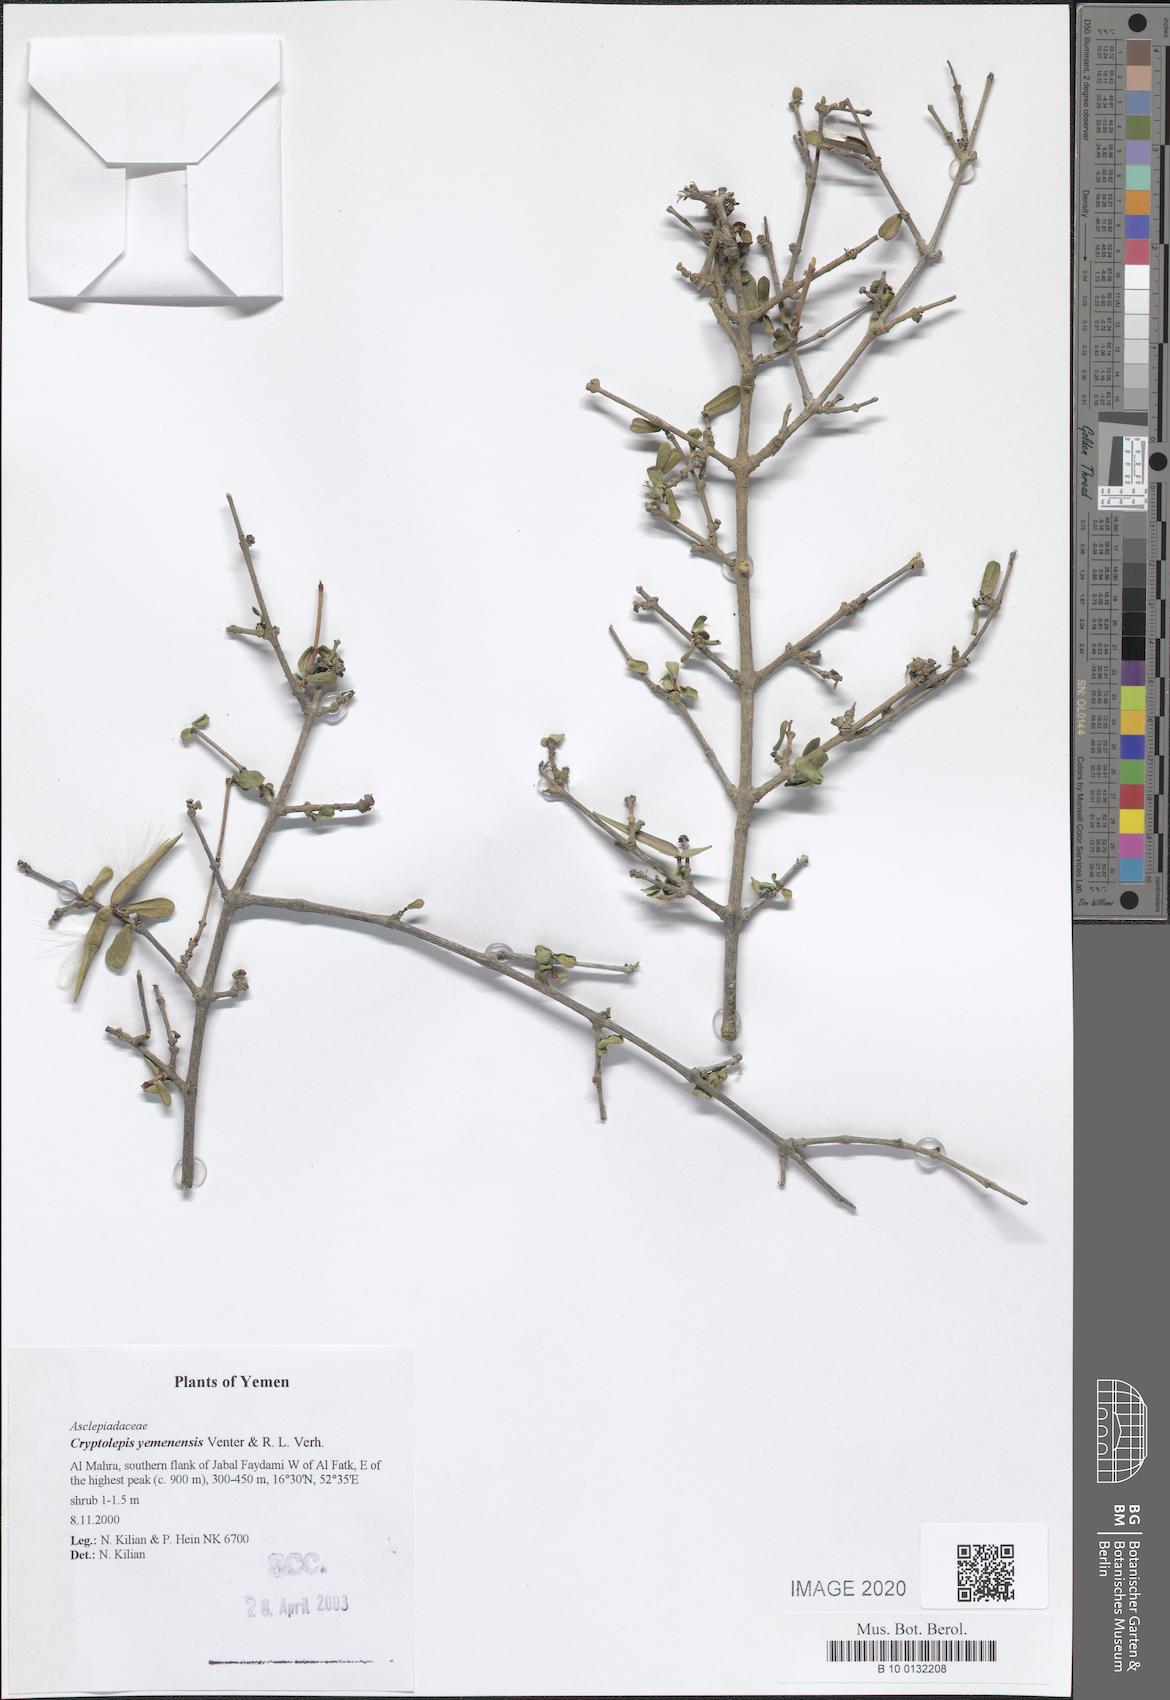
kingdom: Plantae
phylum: Tracheophyta
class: Magnoliopsida
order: Gentianales
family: Apocynaceae
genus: Cryptolepis
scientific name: Cryptolepis yemenensis
